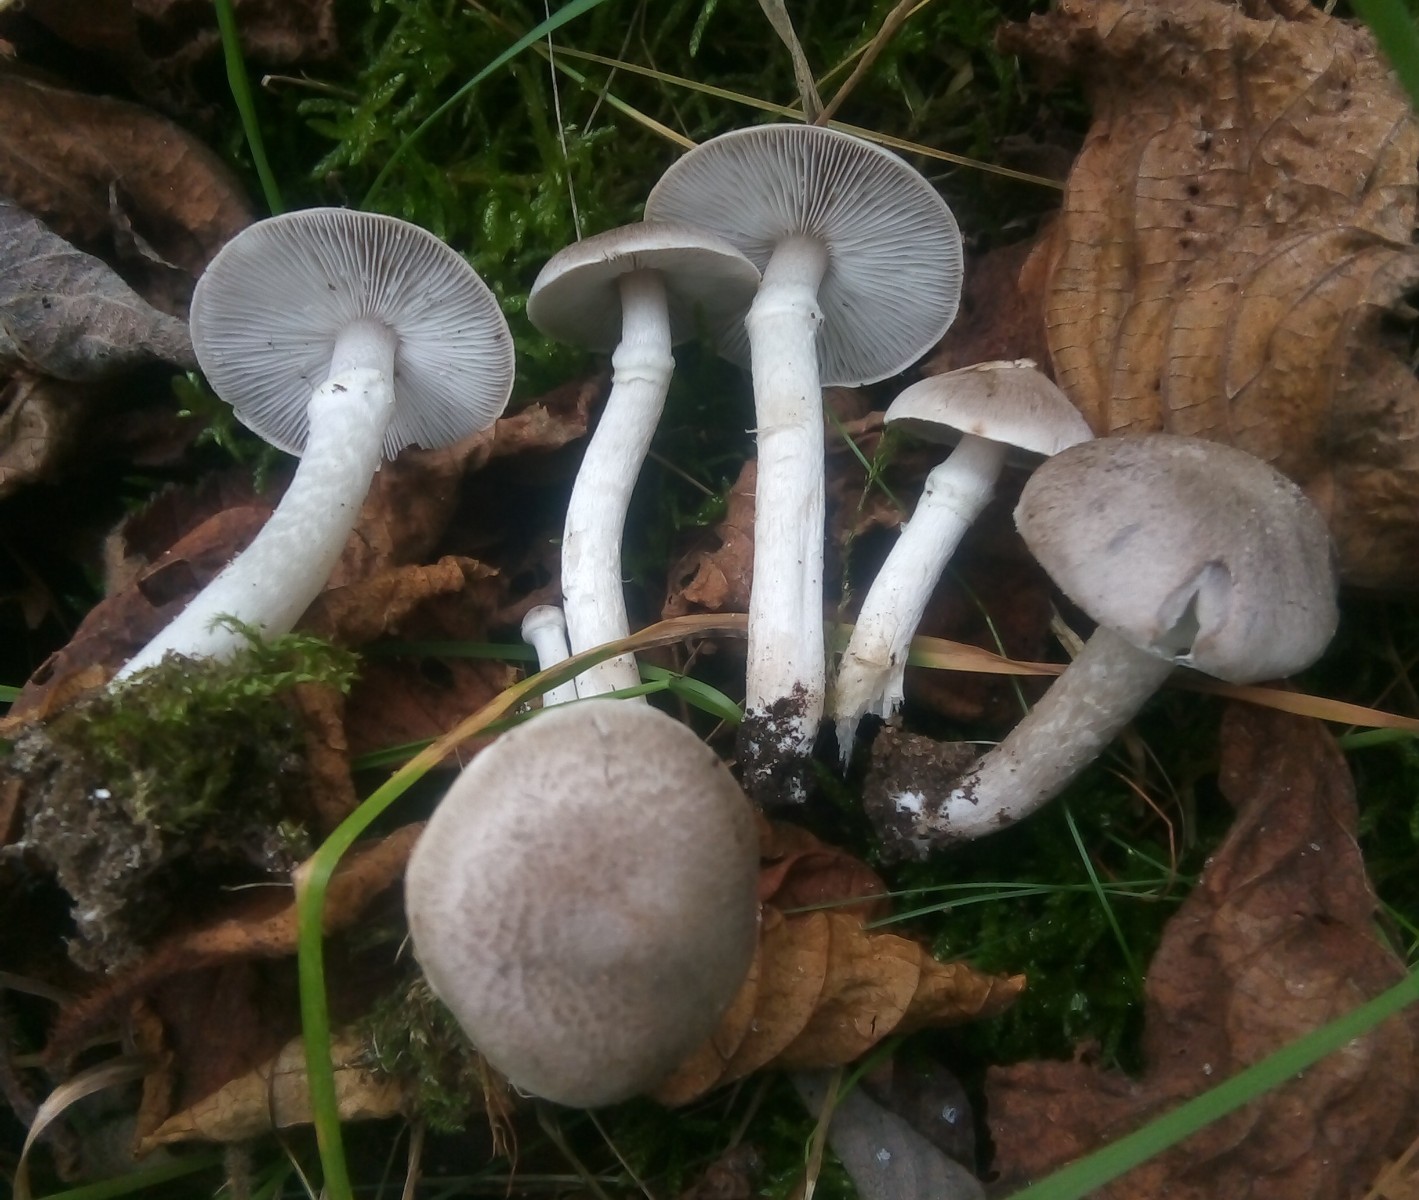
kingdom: Fungi
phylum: Basidiomycota
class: Agaricomycetes
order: Agaricales
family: Tricholomataceae
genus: Tricholoma
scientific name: Tricholoma cingulatum
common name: ring-ridderhat
